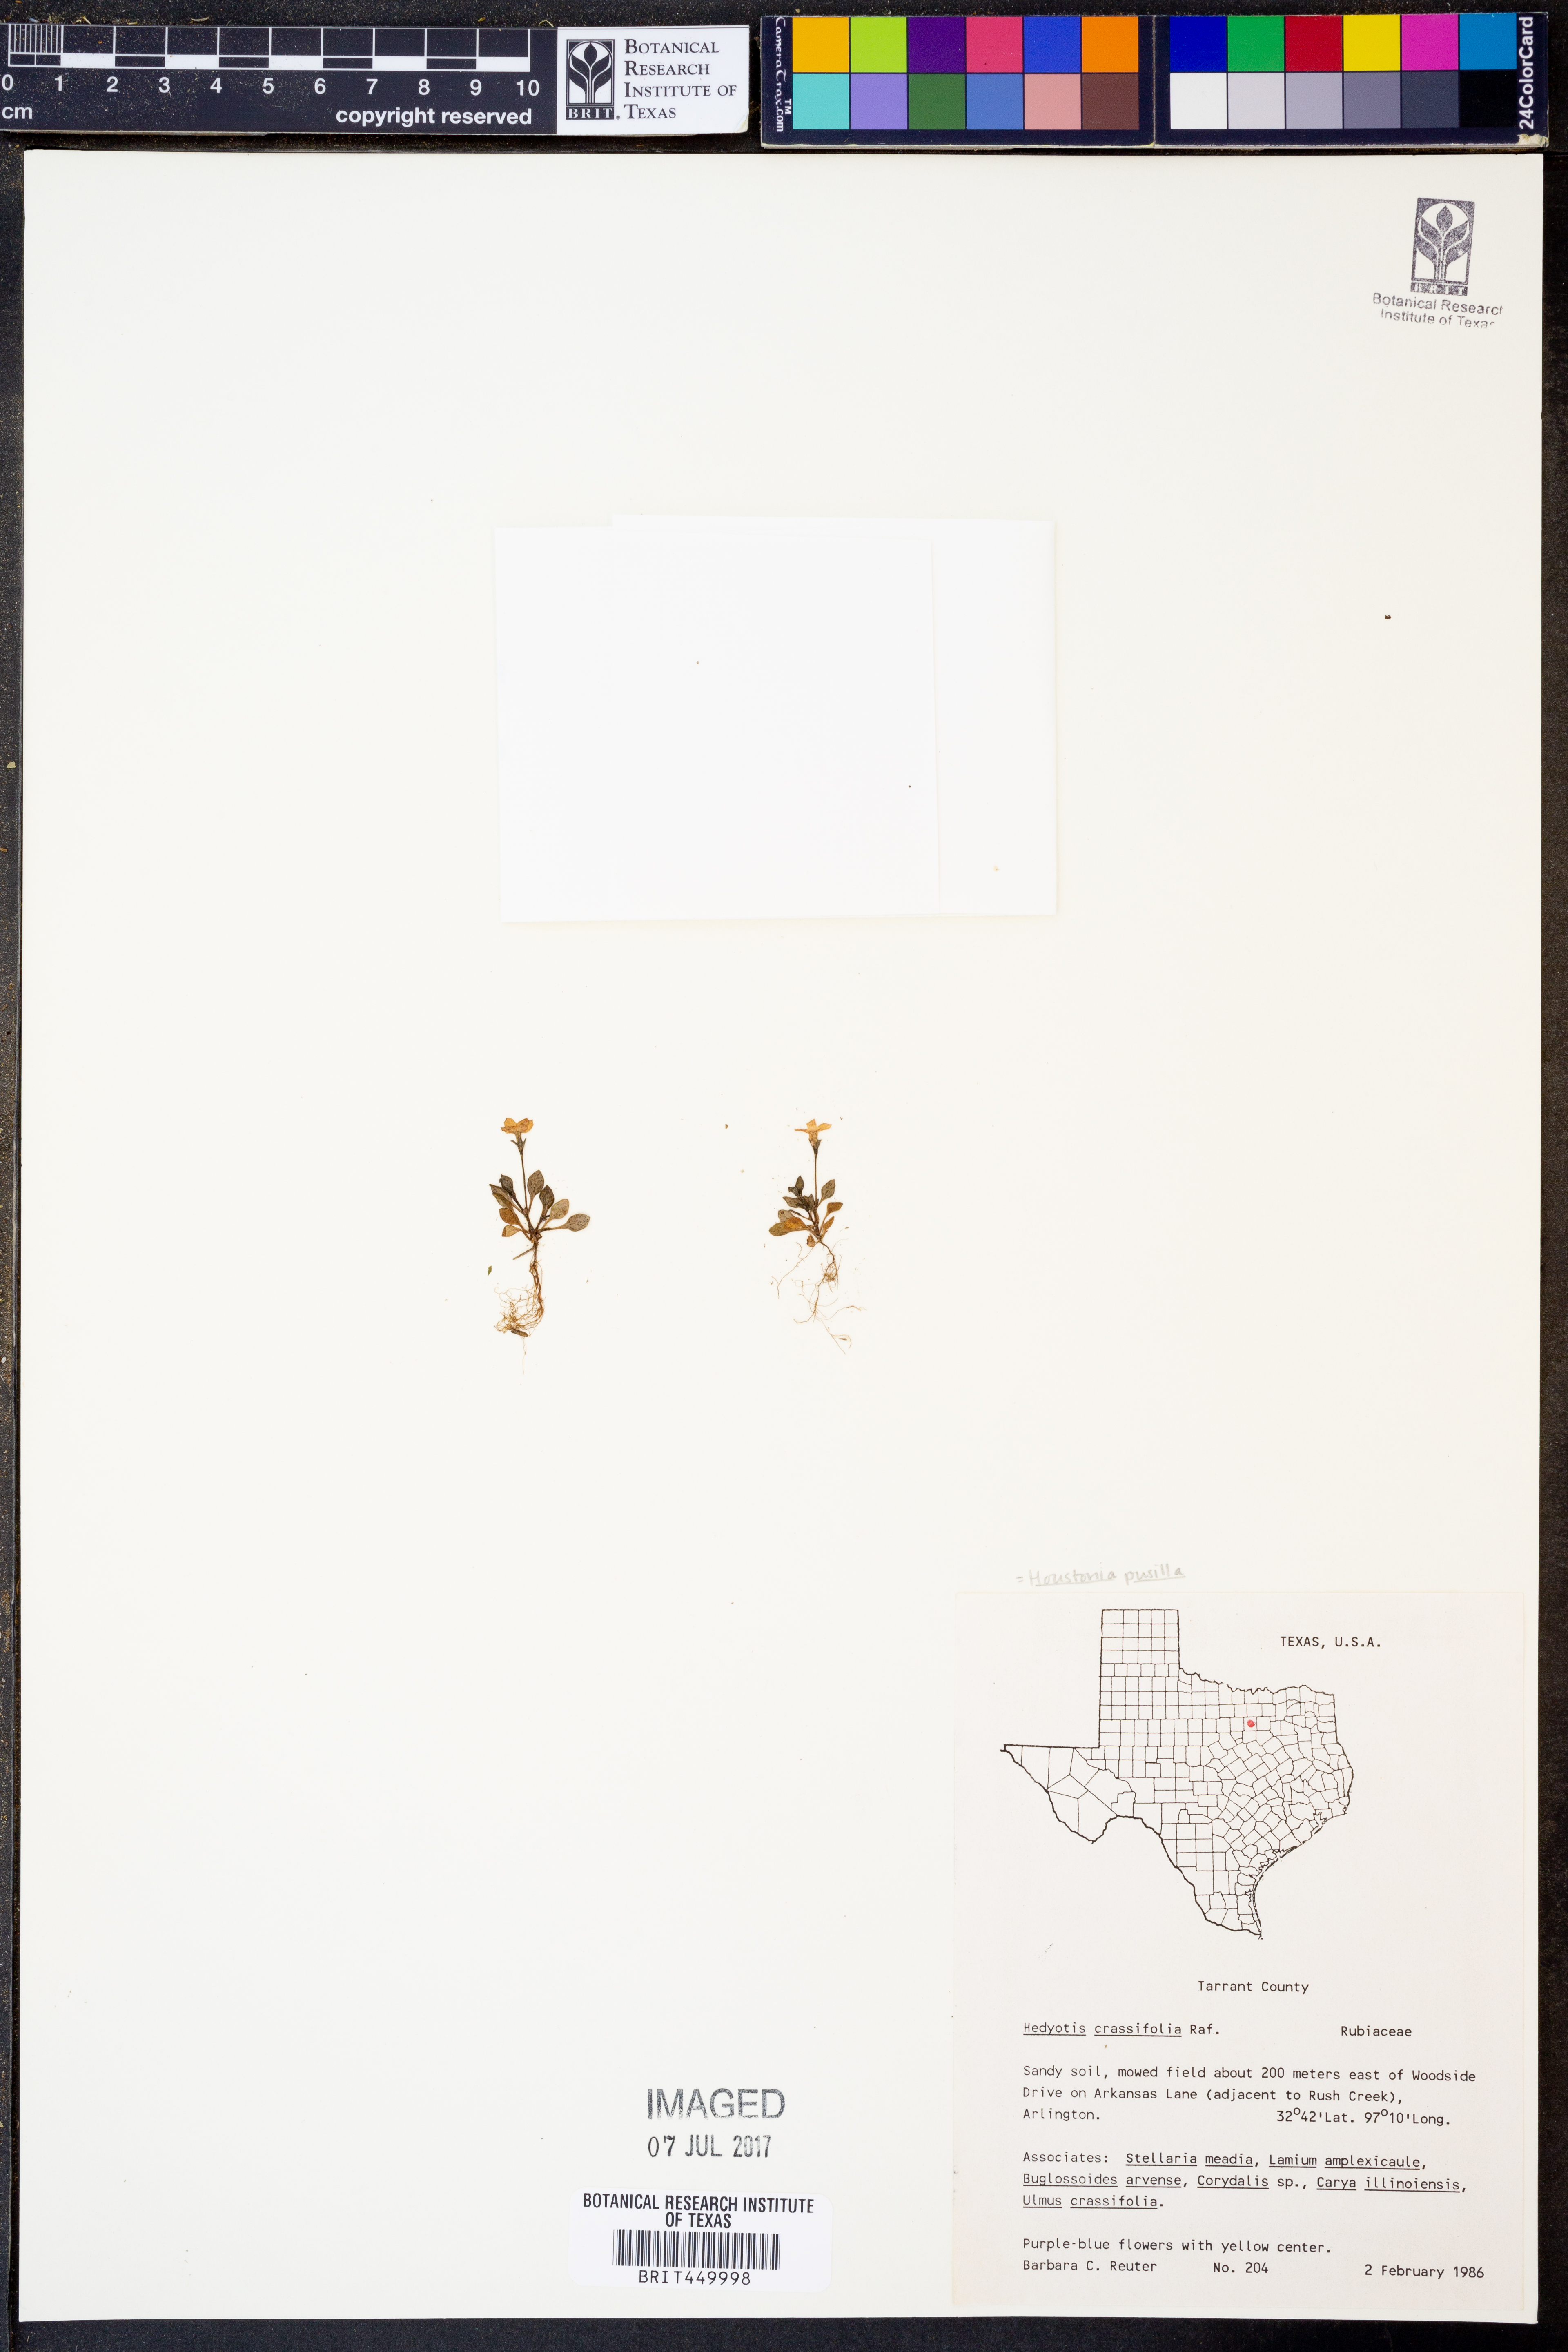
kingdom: Plantae
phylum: Tracheophyta
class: Magnoliopsida
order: Gentianales
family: Rubiaceae
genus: Houstonia
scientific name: Houstonia pusilla
